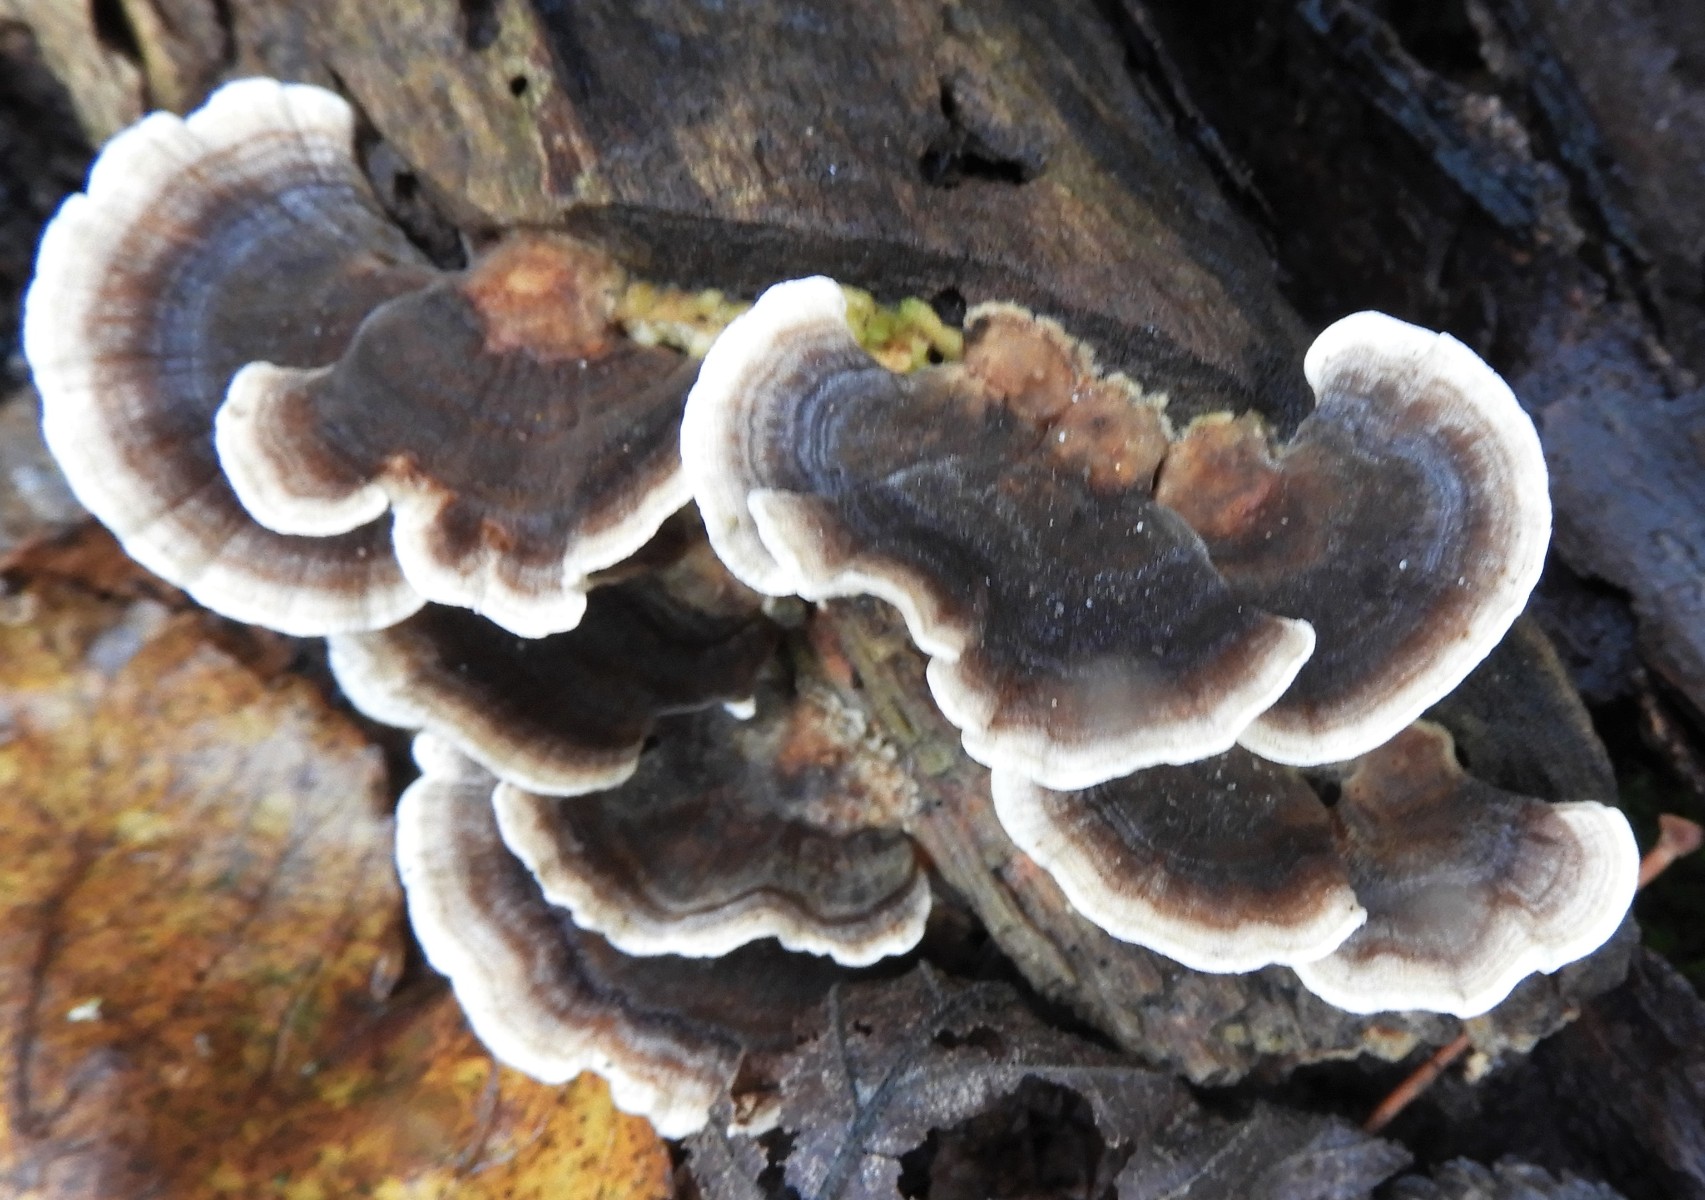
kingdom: Fungi
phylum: Basidiomycota
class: Agaricomycetes
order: Polyporales
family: Polyporaceae
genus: Trametes
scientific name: Trametes versicolor
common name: broget læderporesvamp
